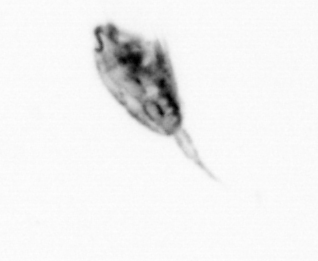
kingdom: Animalia
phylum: Arthropoda
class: Copepoda
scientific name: Copepoda
